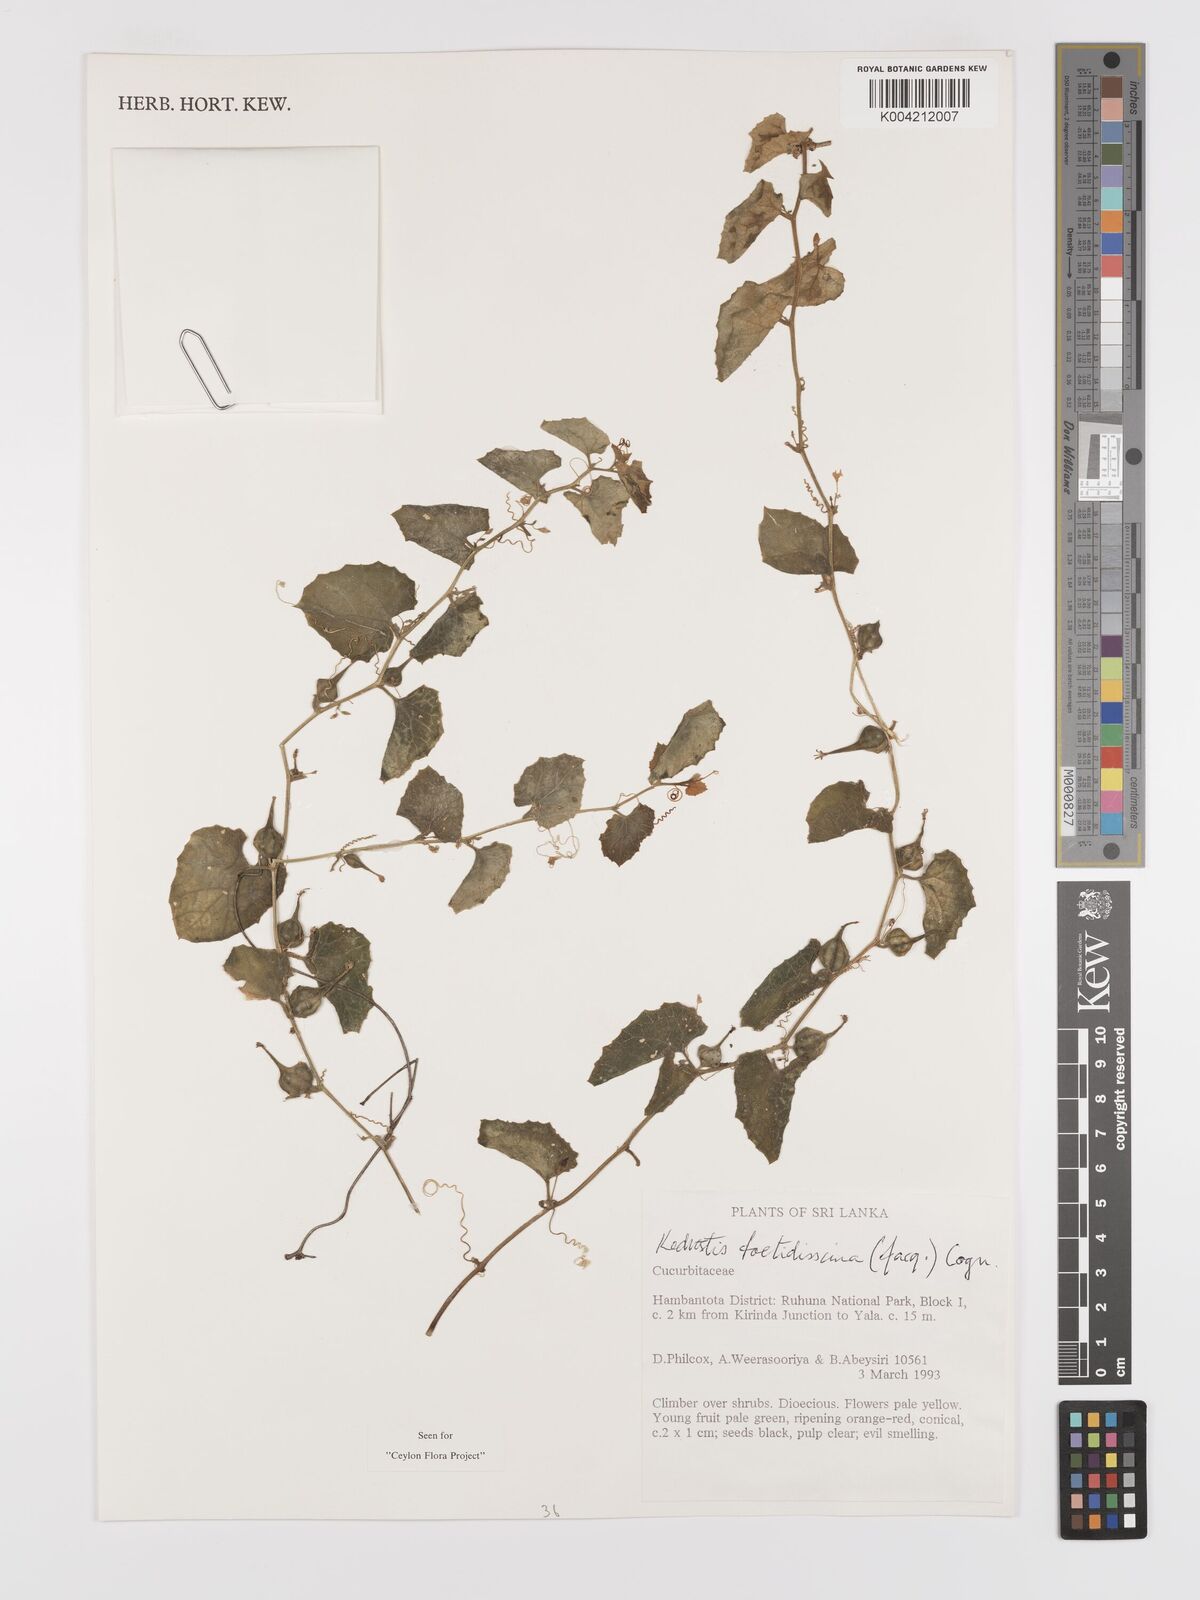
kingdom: Plantae
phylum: Tracheophyta
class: Magnoliopsida
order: Cucurbitales
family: Cucurbitaceae
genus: Kedrostis
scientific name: Kedrostis foetidissima
